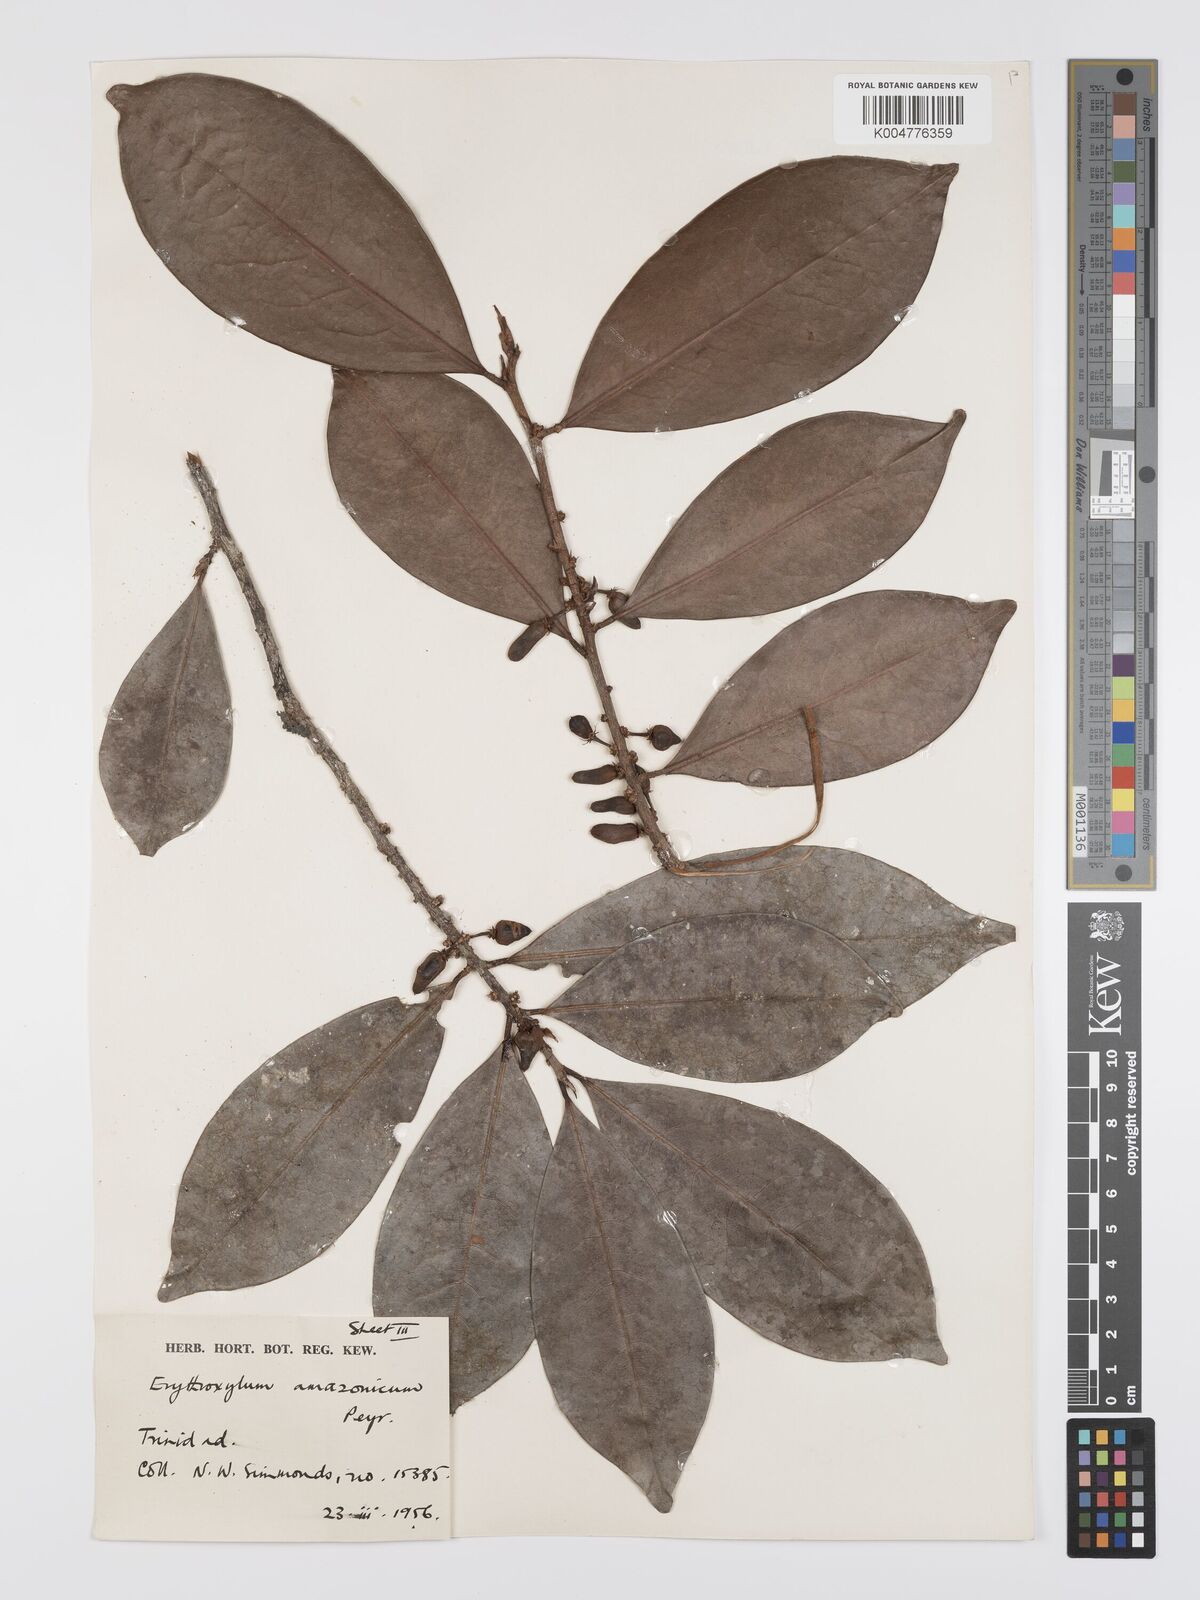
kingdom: Plantae
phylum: Tracheophyta
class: Magnoliopsida
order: Malpighiales
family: Erythroxylaceae
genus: Erythroxylum
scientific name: Erythroxylum amazonicum
